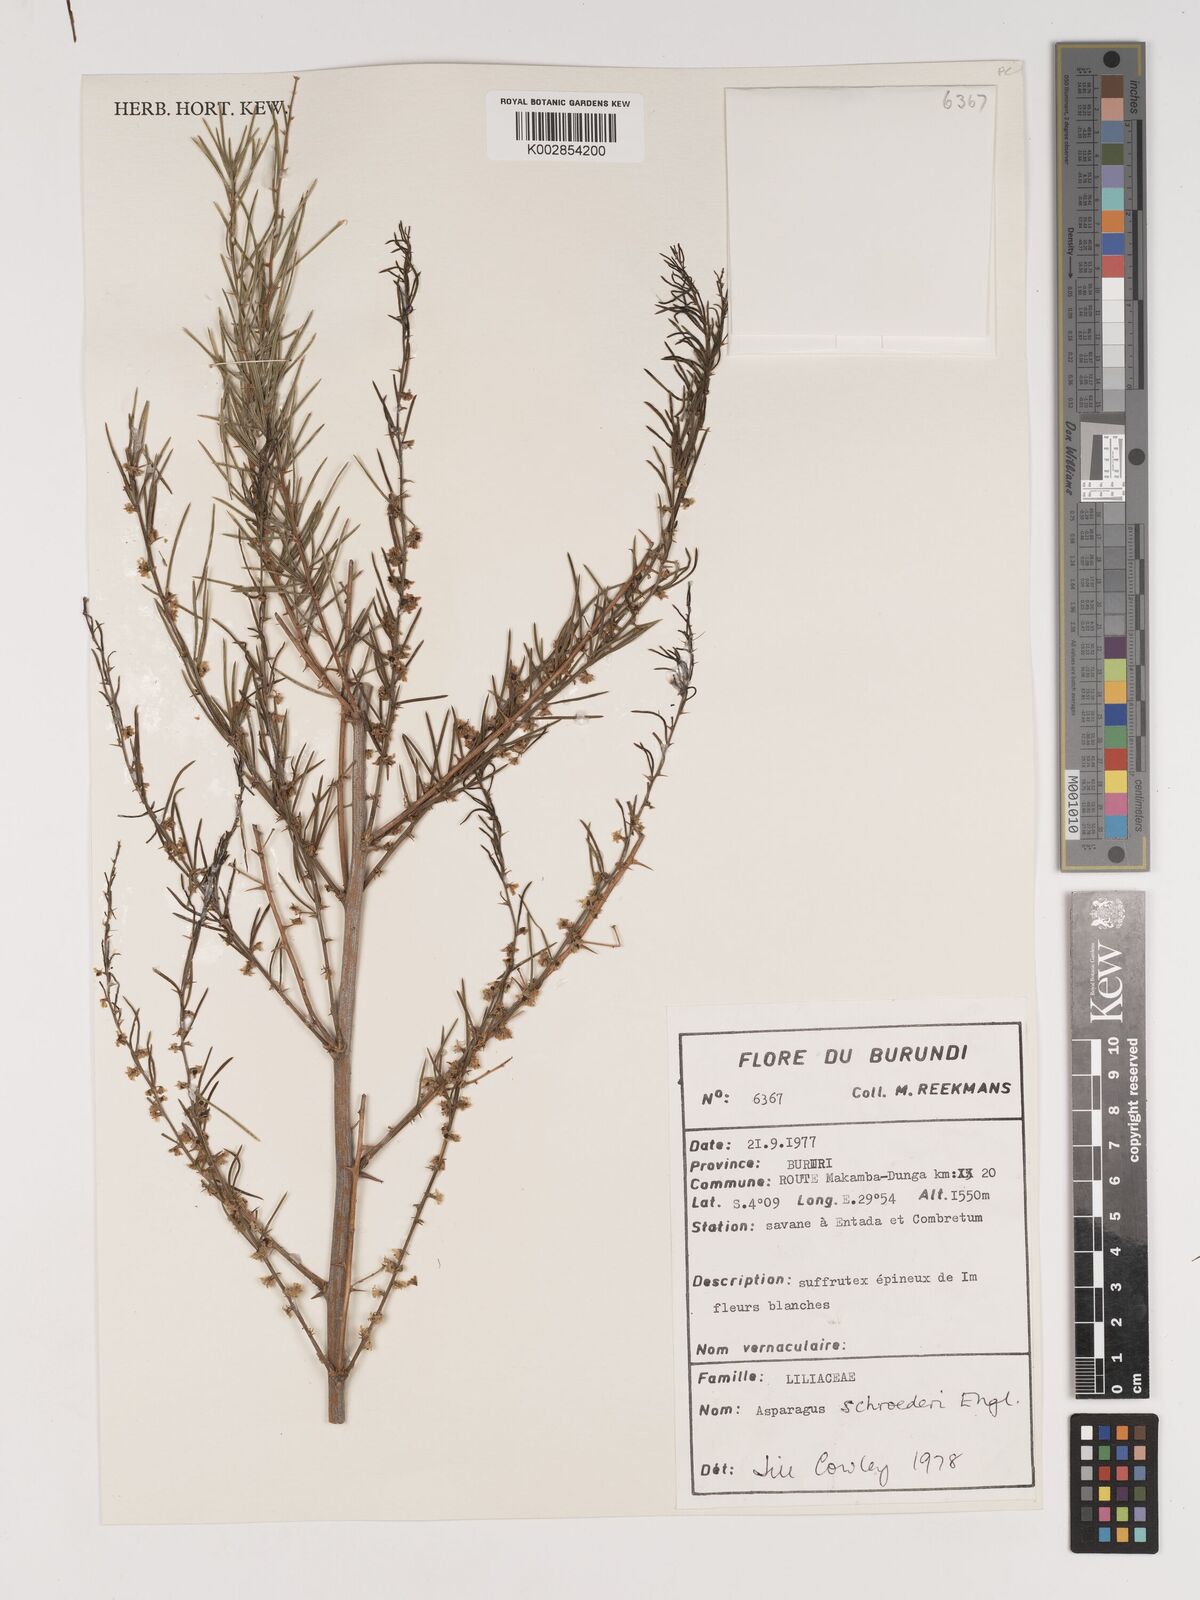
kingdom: Plantae
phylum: Tracheophyta
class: Liliopsida
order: Asparagales
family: Asparagaceae
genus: Asparagus
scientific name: Asparagus schroederi
